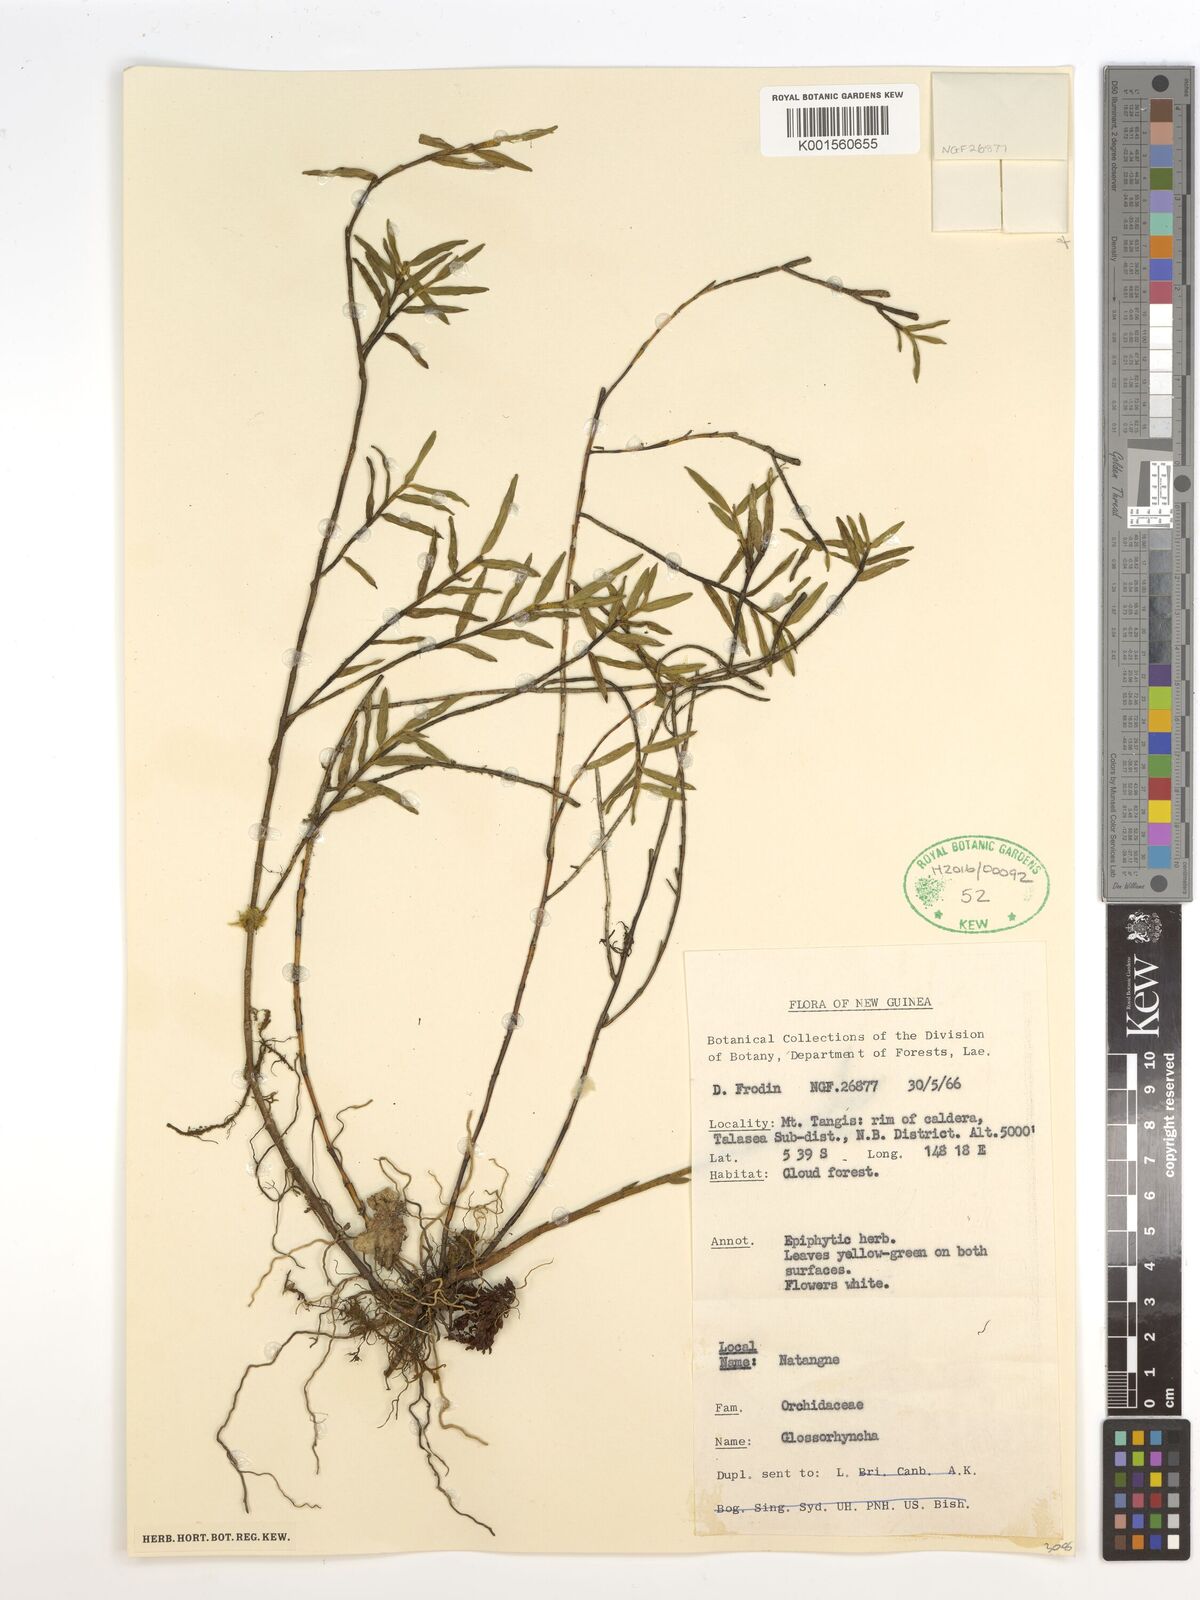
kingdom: Plantae
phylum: Tracheophyta
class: Liliopsida
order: Asparagales
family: Orchidaceae
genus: Glomera
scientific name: Glomera
